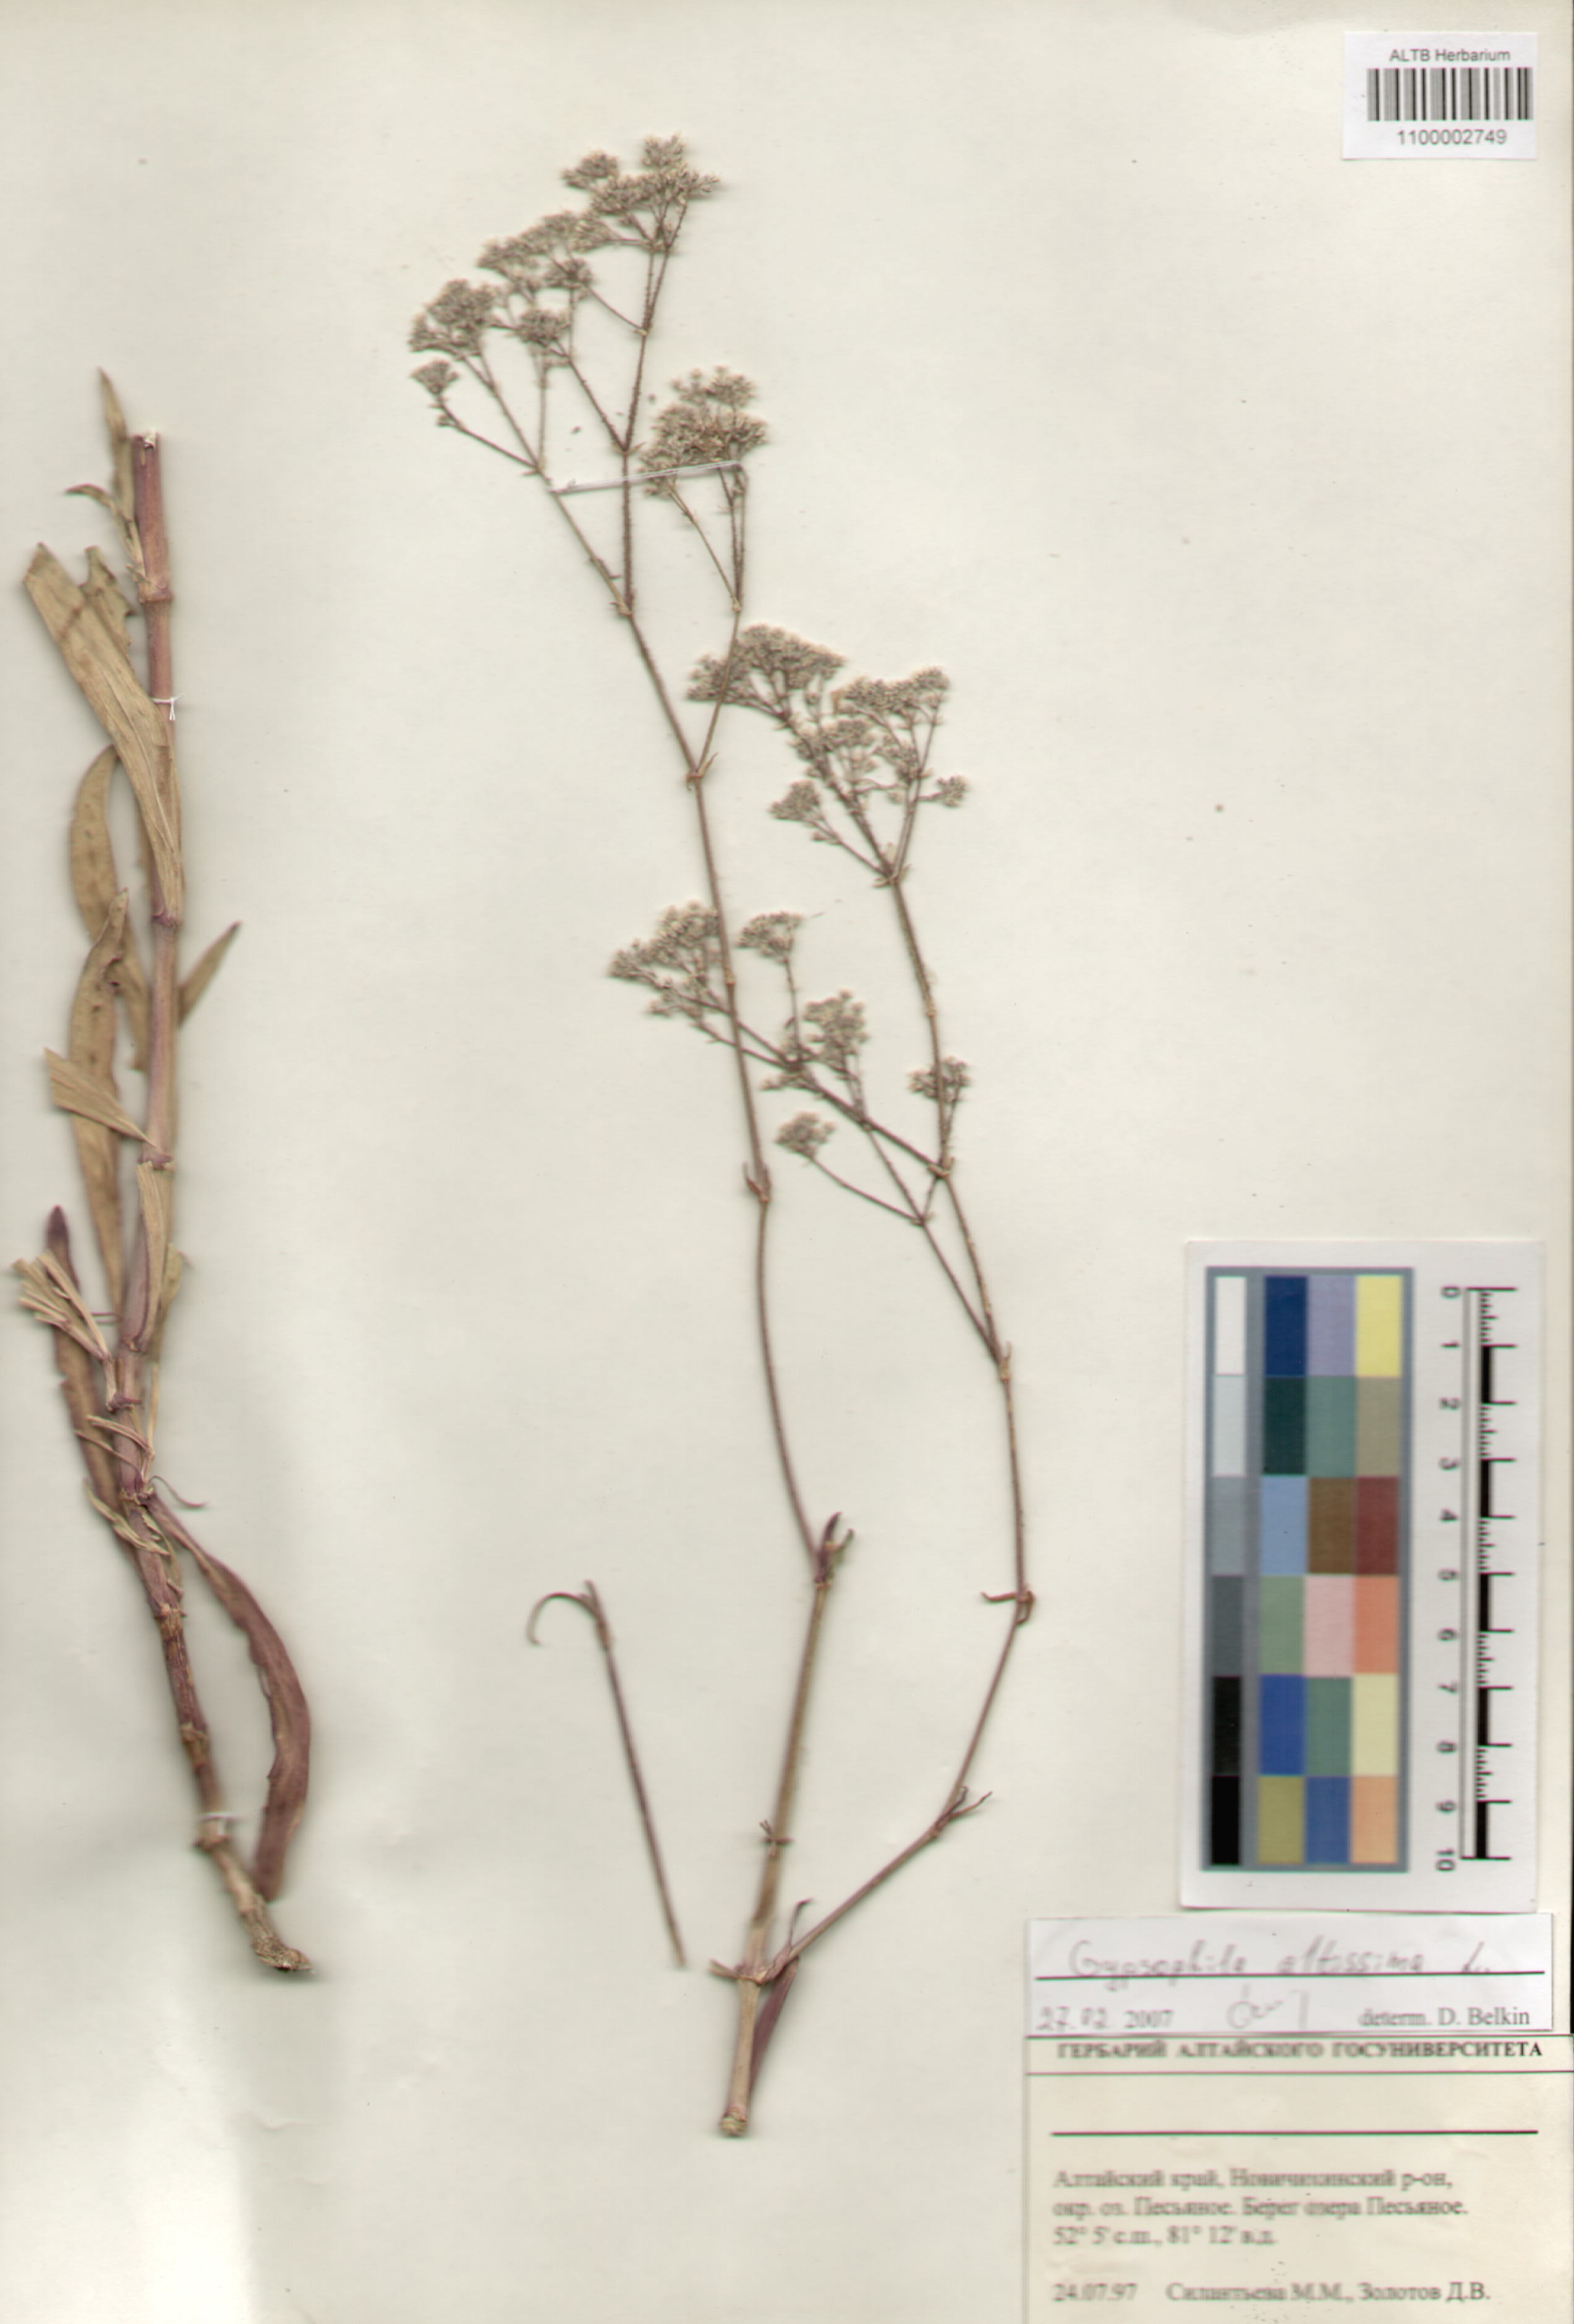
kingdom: Plantae
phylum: Tracheophyta
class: Magnoliopsida
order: Caryophyllales
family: Caryophyllaceae
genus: Gypsophila
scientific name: Gypsophila altissima
